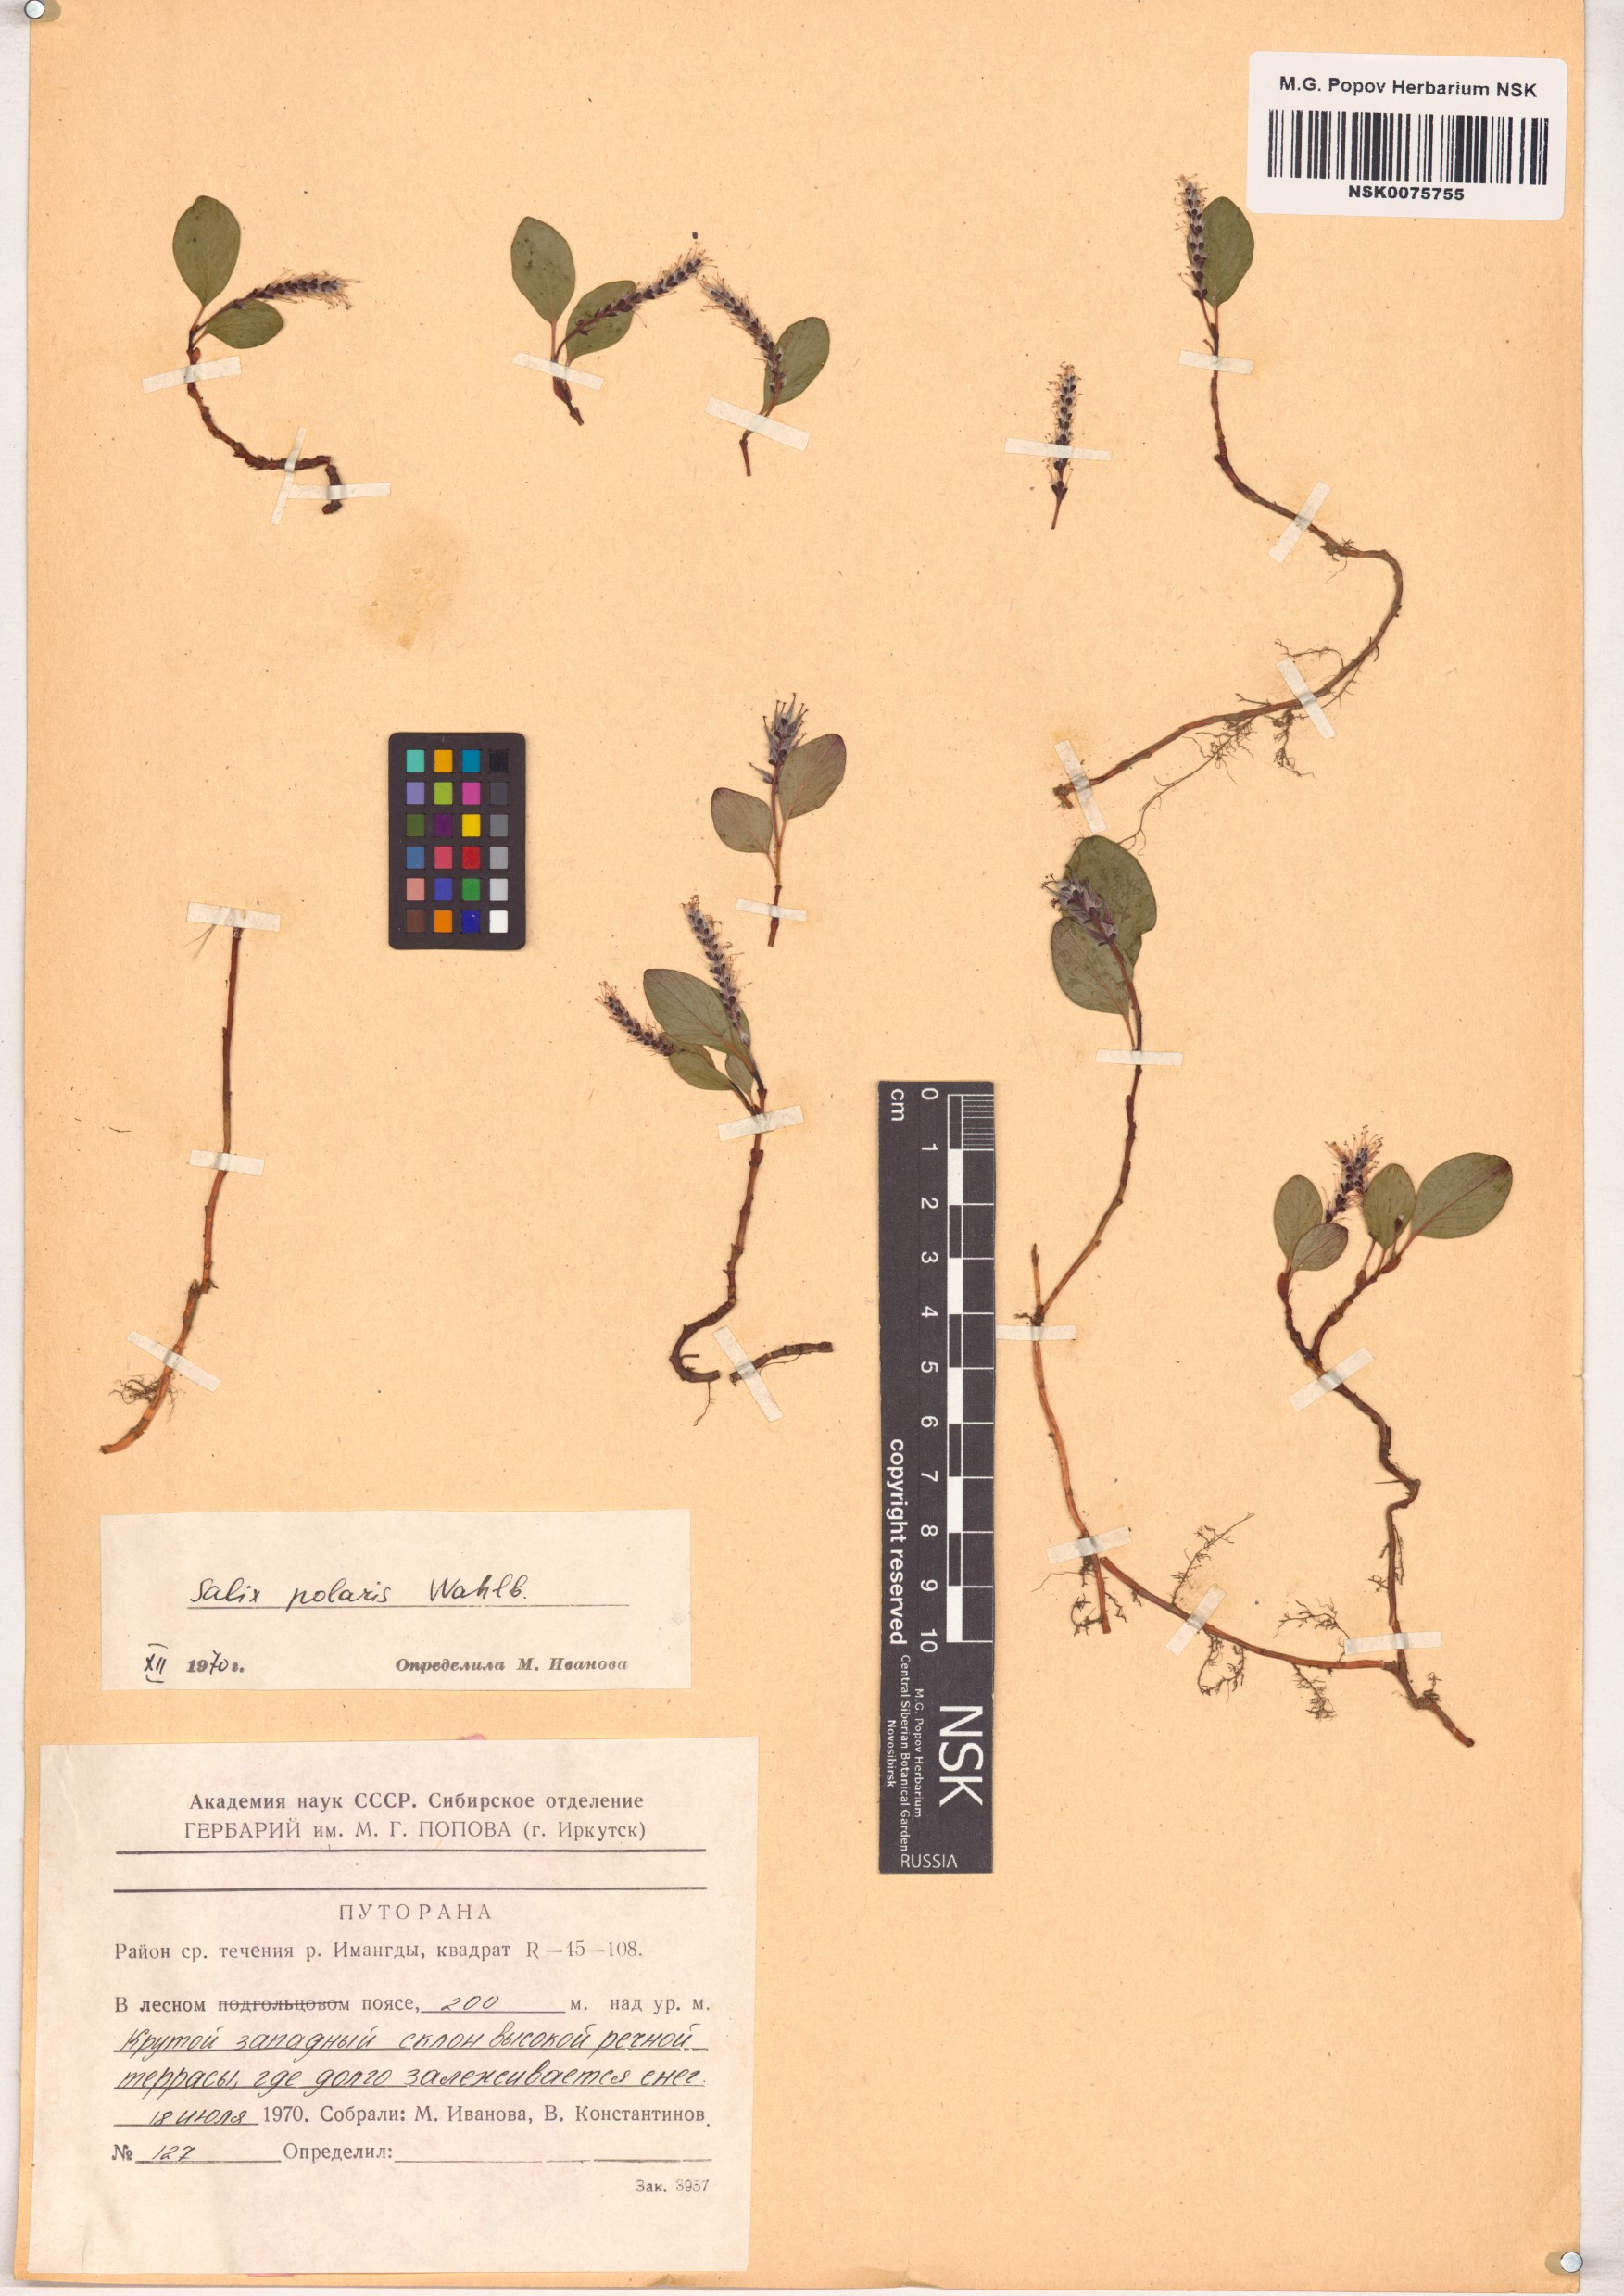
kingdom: Plantae
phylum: Tracheophyta
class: Magnoliopsida
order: Malpighiales
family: Salicaceae
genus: Salix
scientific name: Salix polaris
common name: Polar willow
